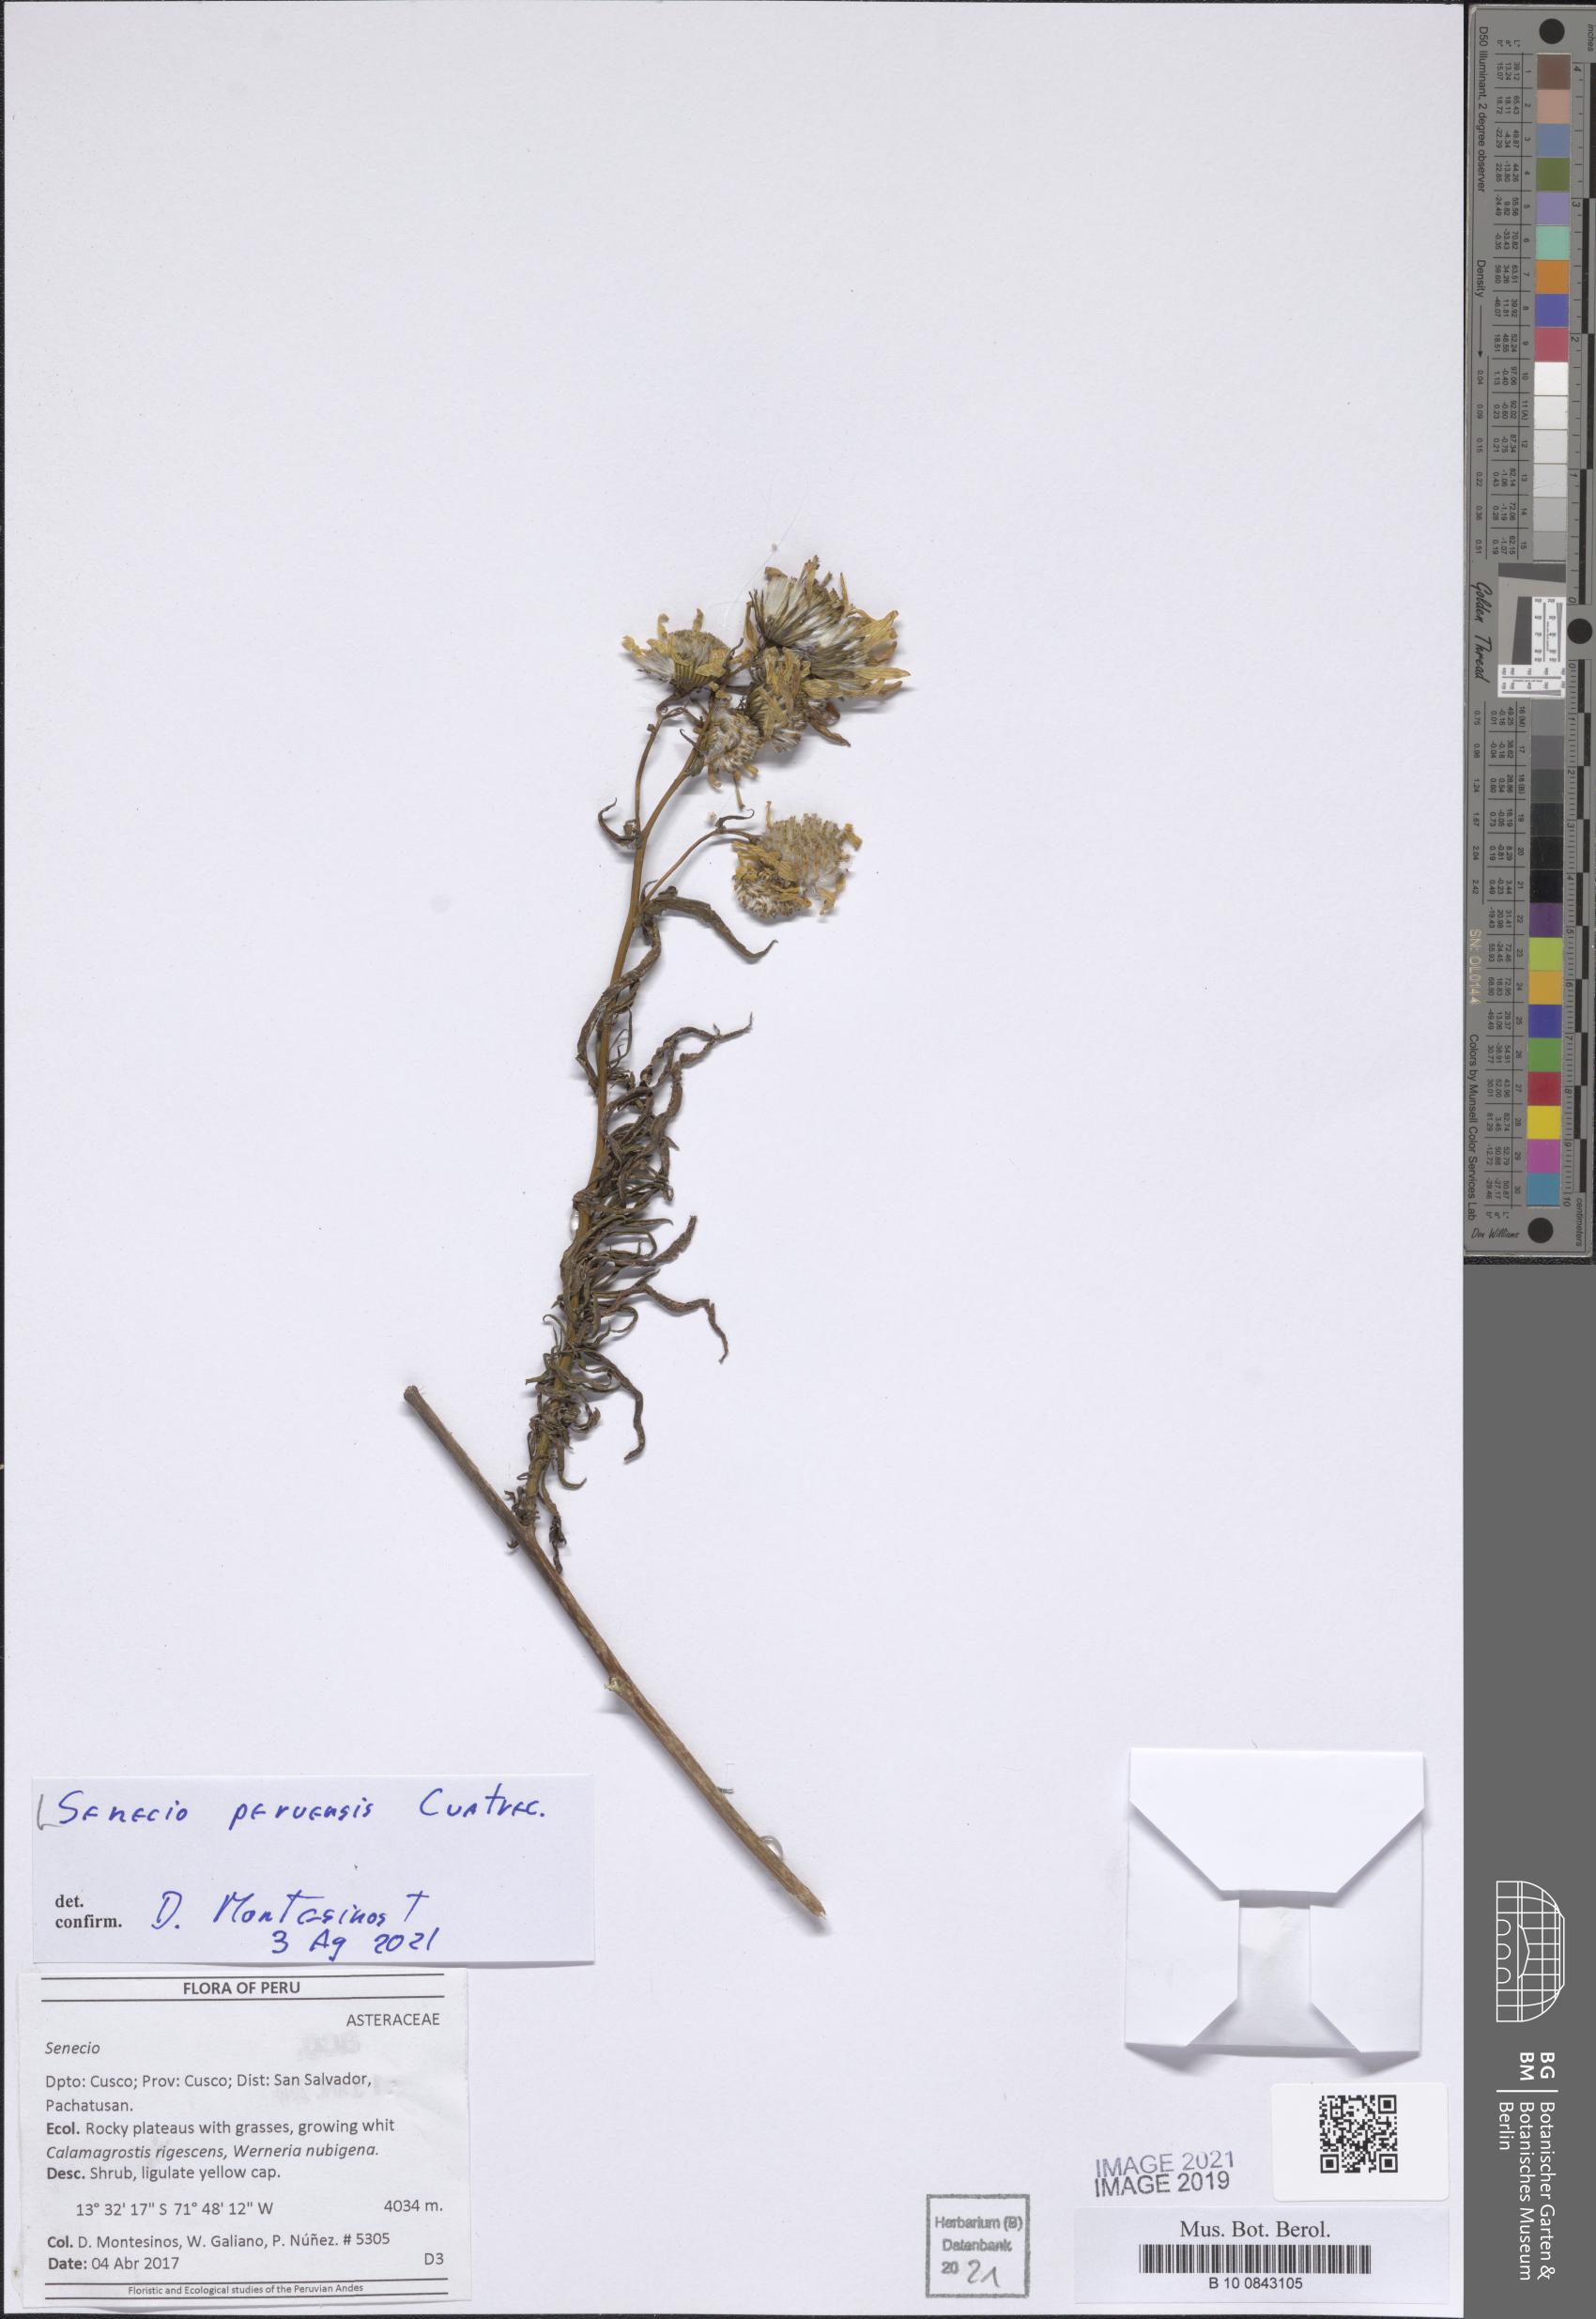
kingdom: Plantae
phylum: Tracheophyta
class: Magnoliopsida
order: Asterales
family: Asteraceae
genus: Senecio
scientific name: Senecio peruensis
